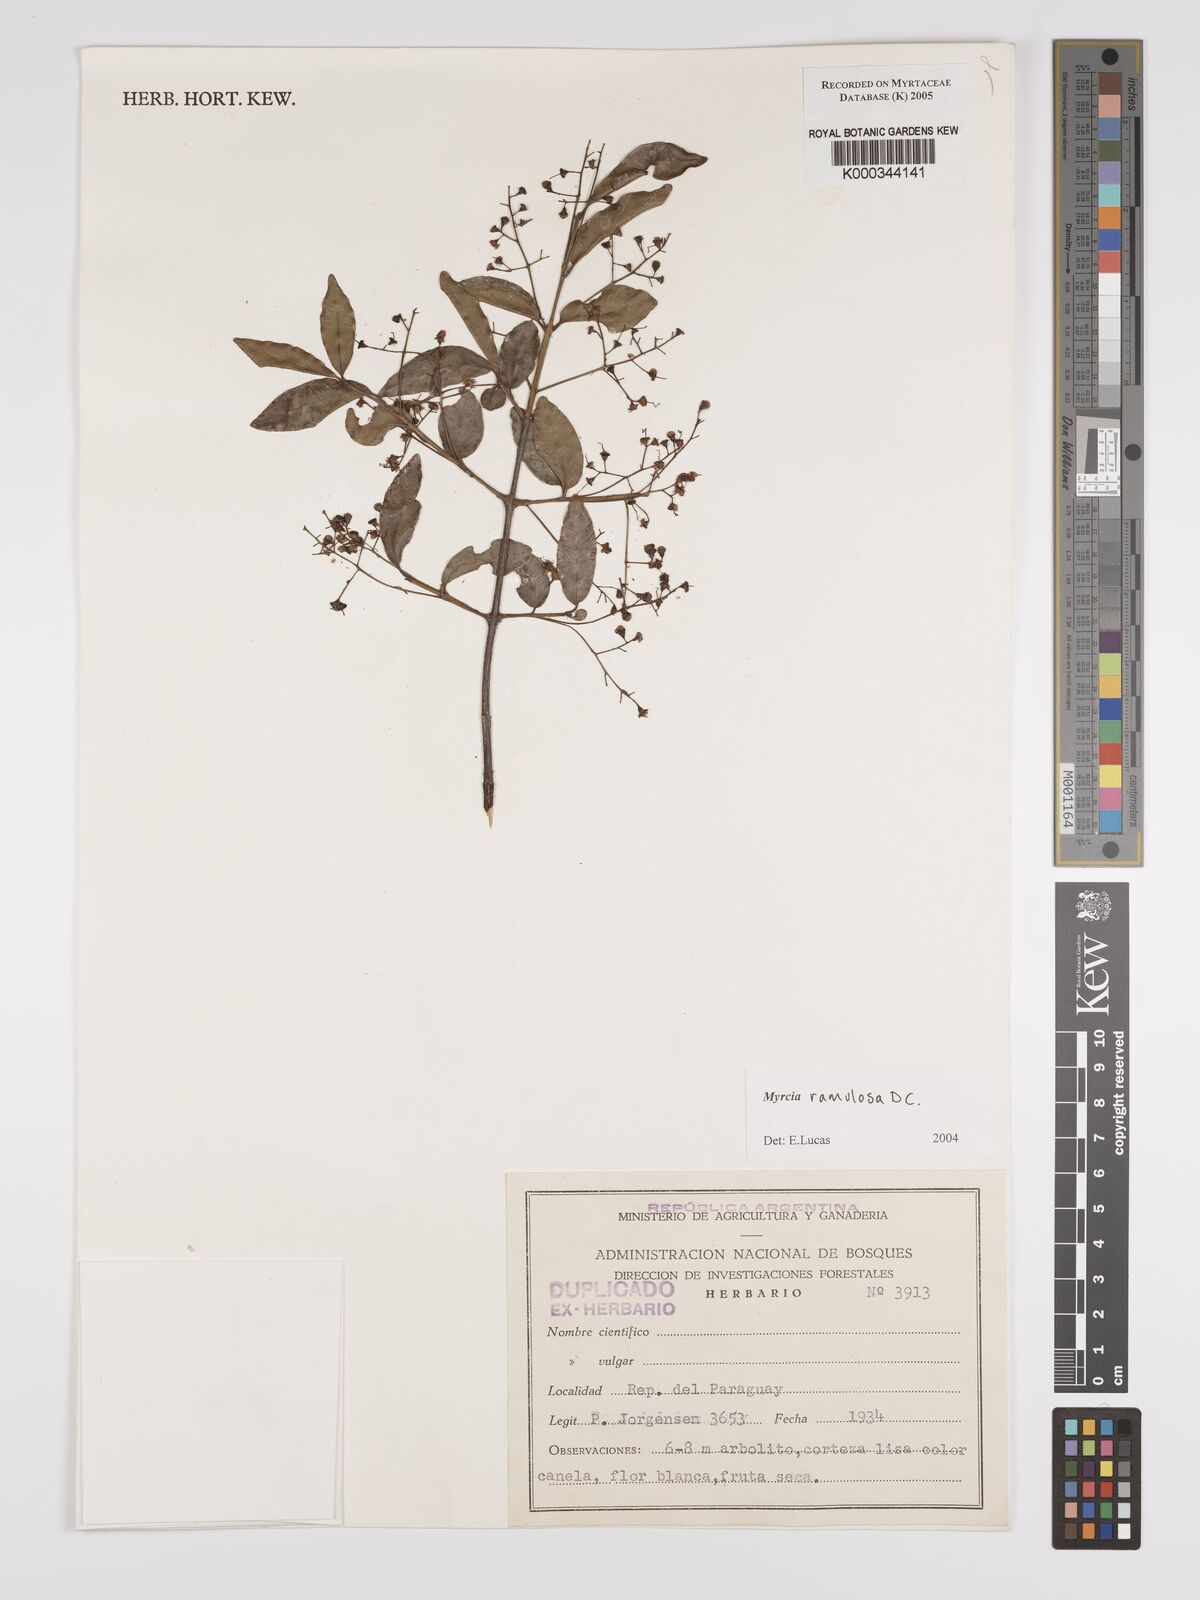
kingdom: Plantae
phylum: Tracheophyta
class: Magnoliopsida
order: Myrtales
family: Myrtaceae
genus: Myrcia
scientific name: Myrcia selloi
